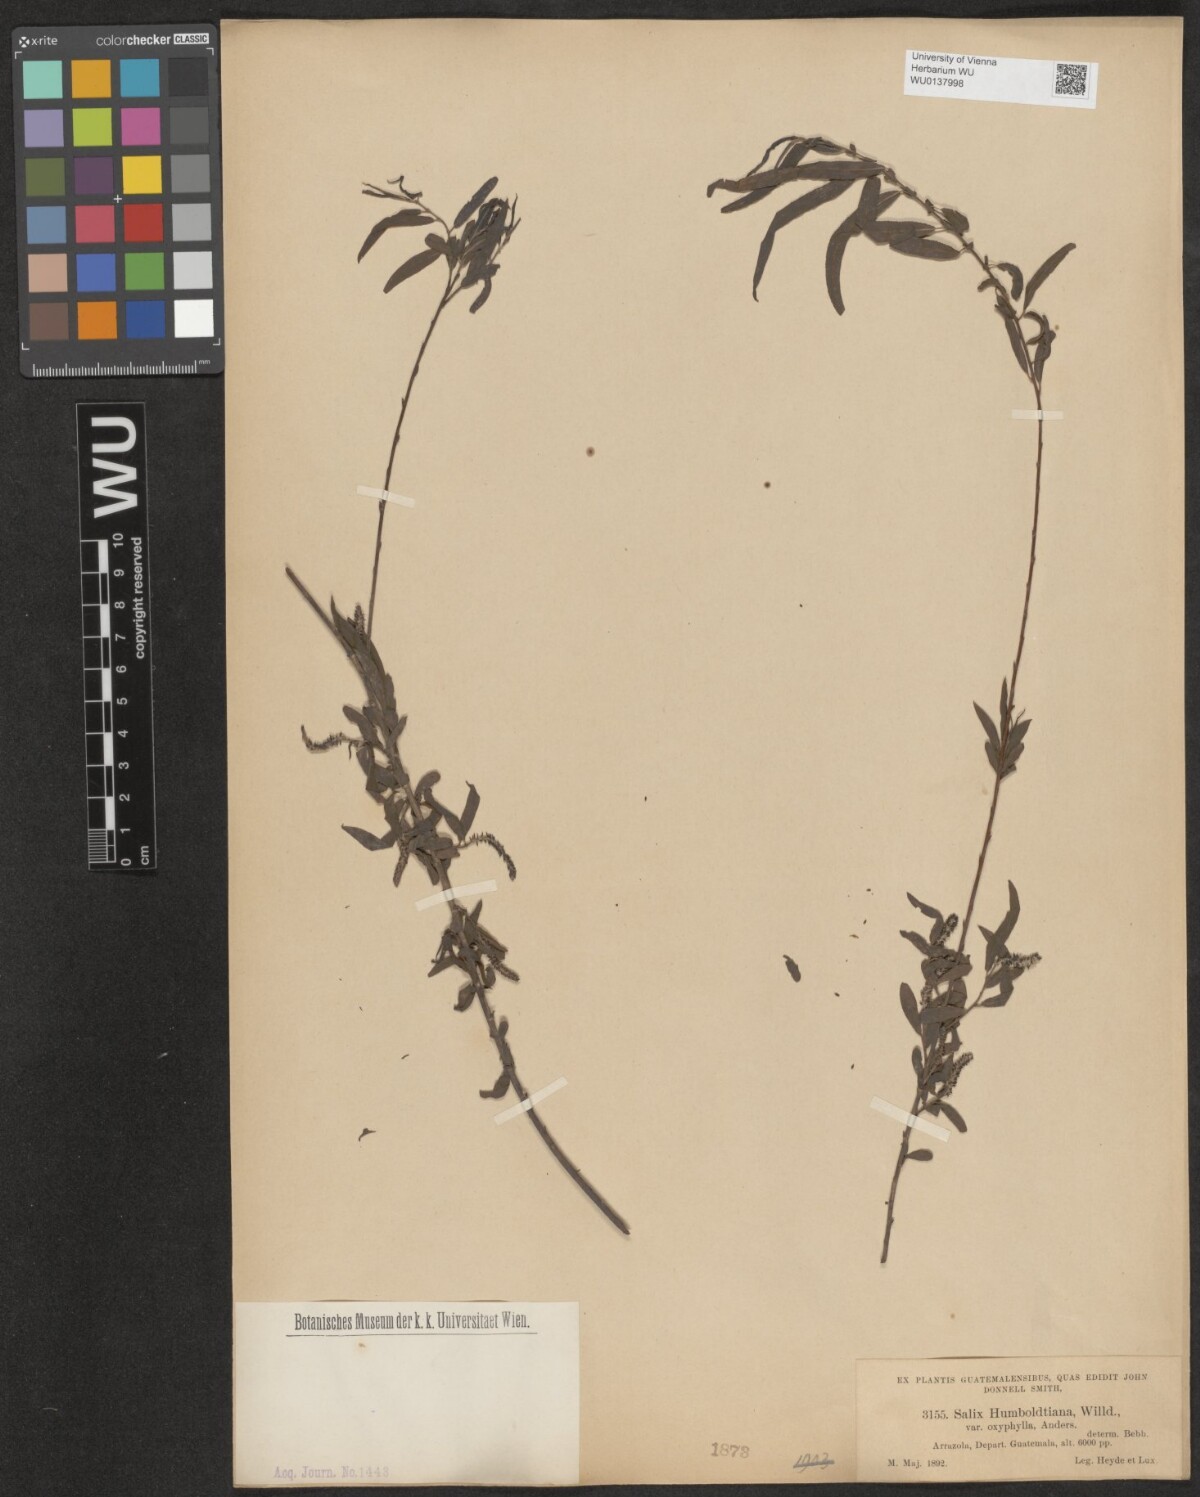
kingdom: Plantae
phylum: Tracheophyta
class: Magnoliopsida
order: Malpighiales
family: Salicaceae
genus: Salix
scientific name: Salix humboldtiana
